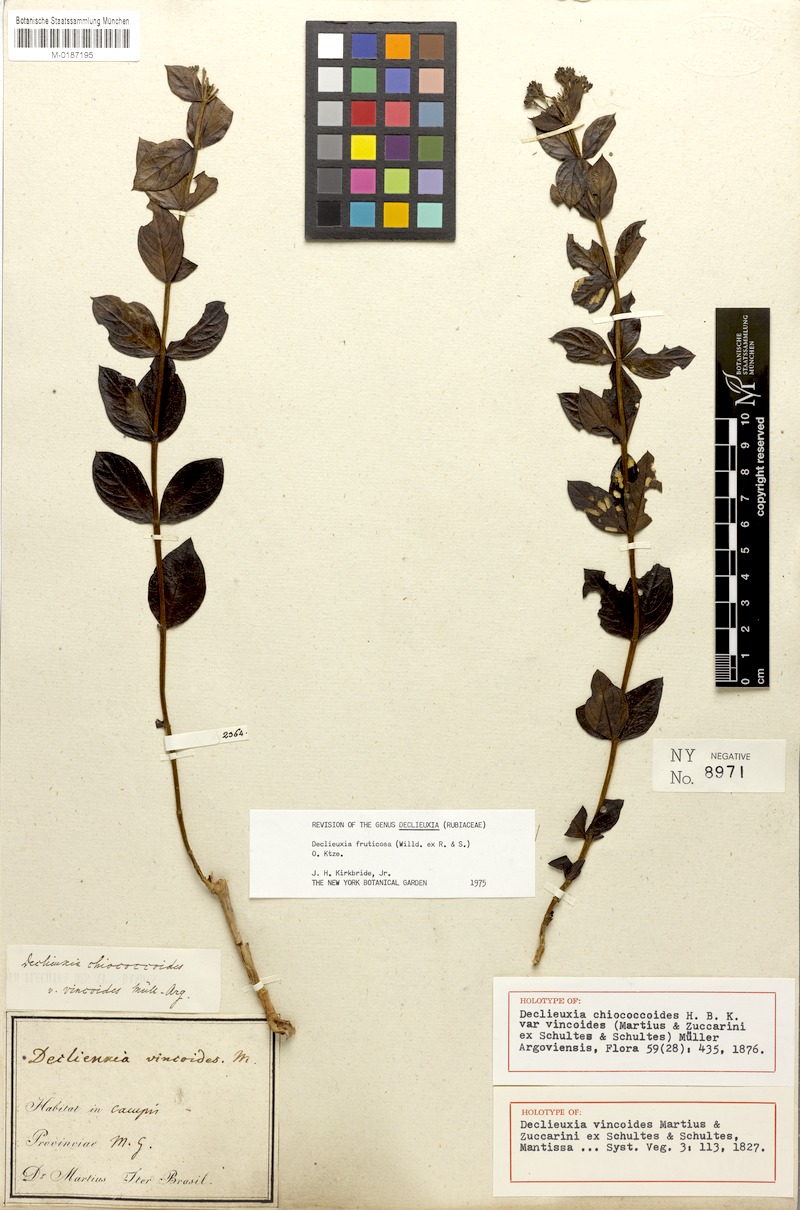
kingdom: Plantae
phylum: Tracheophyta
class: Magnoliopsida
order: Gentianales
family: Rubiaceae
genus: Declieuxia
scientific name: Declieuxia fruticosa
